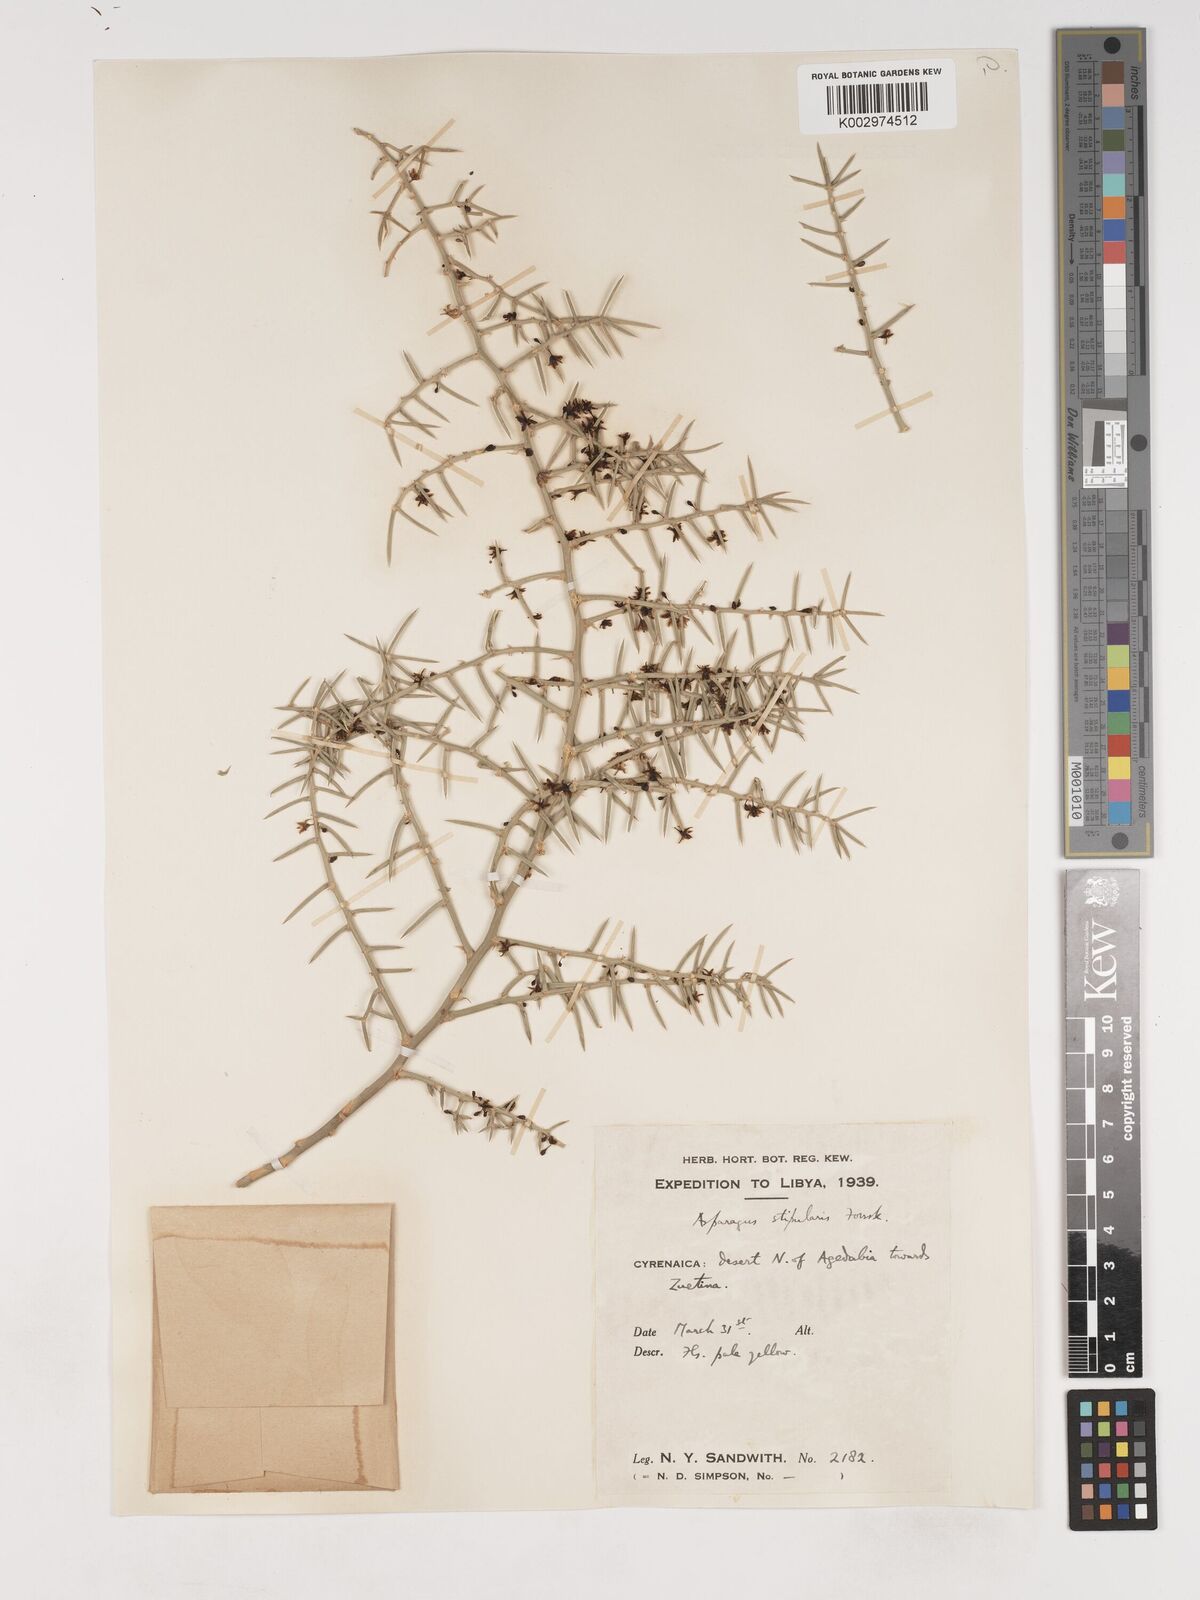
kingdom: Plantae
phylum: Tracheophyta
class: Liliopsida
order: Asparagales
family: Asparagaceae
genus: Asparagus
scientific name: Asparagus stipulaceus
